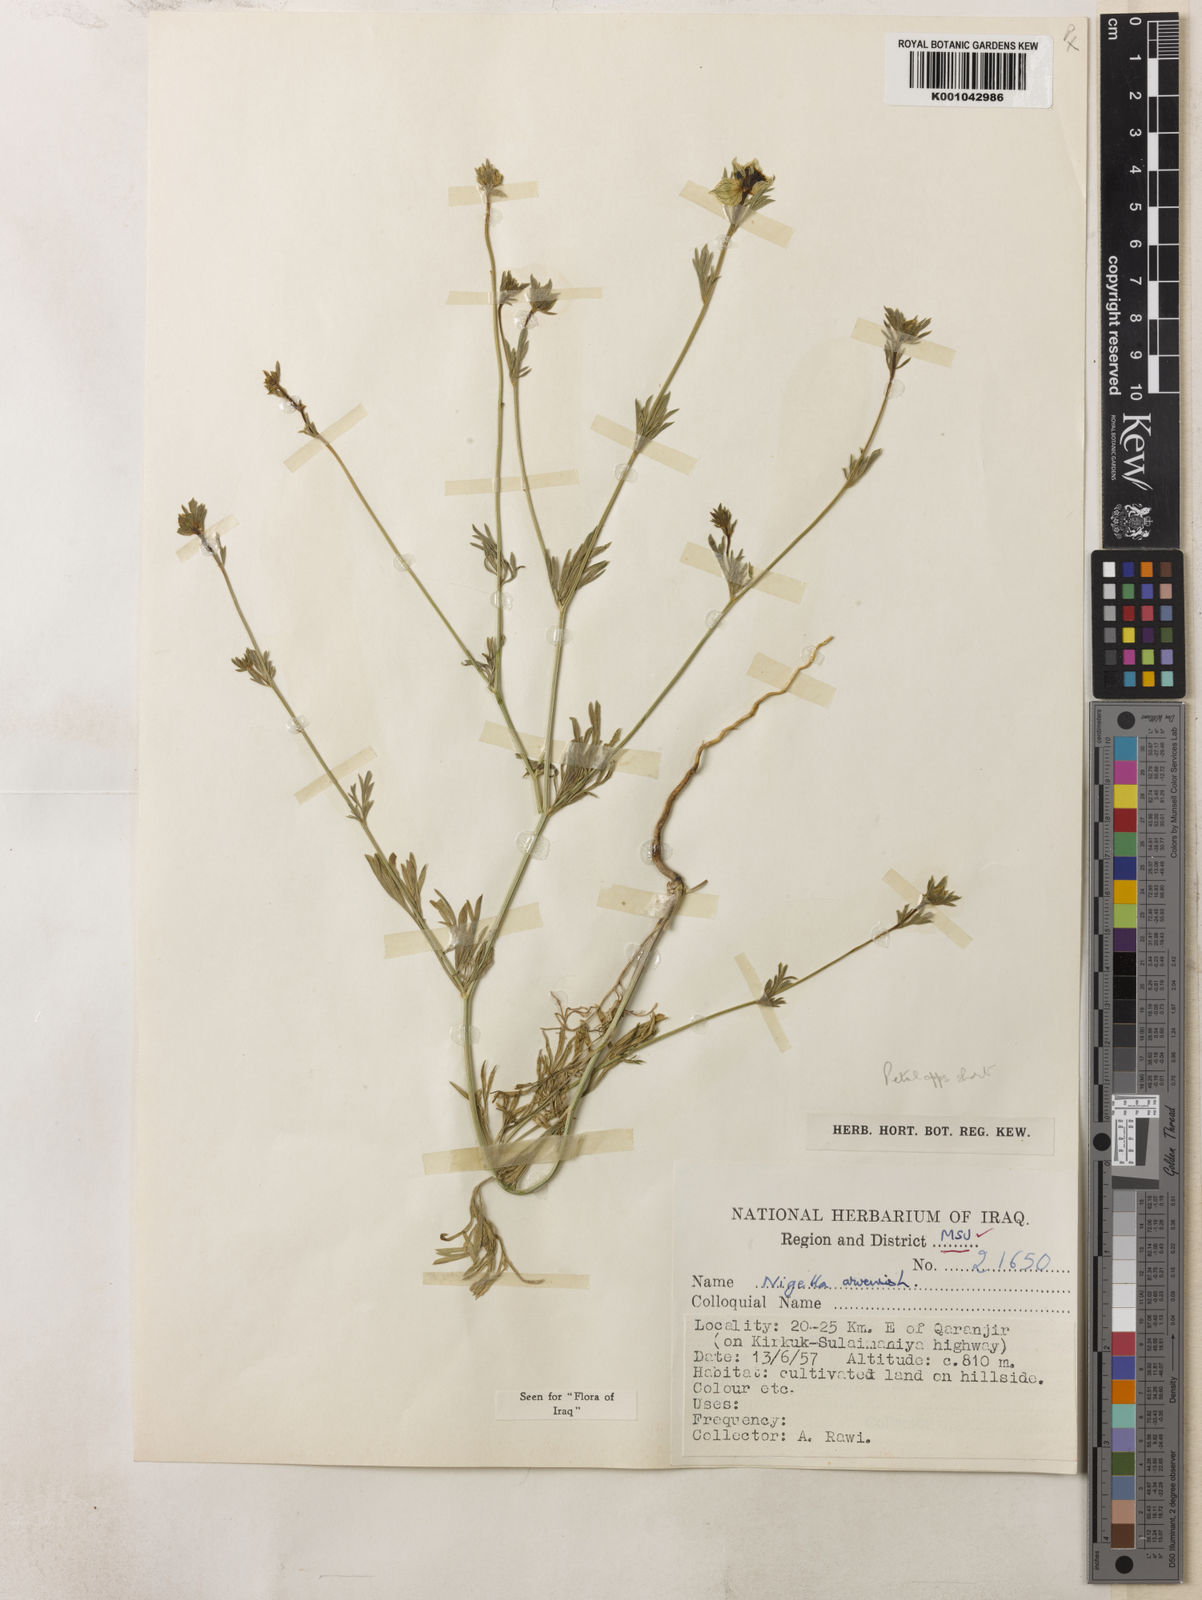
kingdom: Plantae
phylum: Tracheophyta
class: Magnoliopsida
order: Ranunculales
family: Ranunculaceae
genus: Nigella
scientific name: Nigella arvensis
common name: Wild fennel-flower
